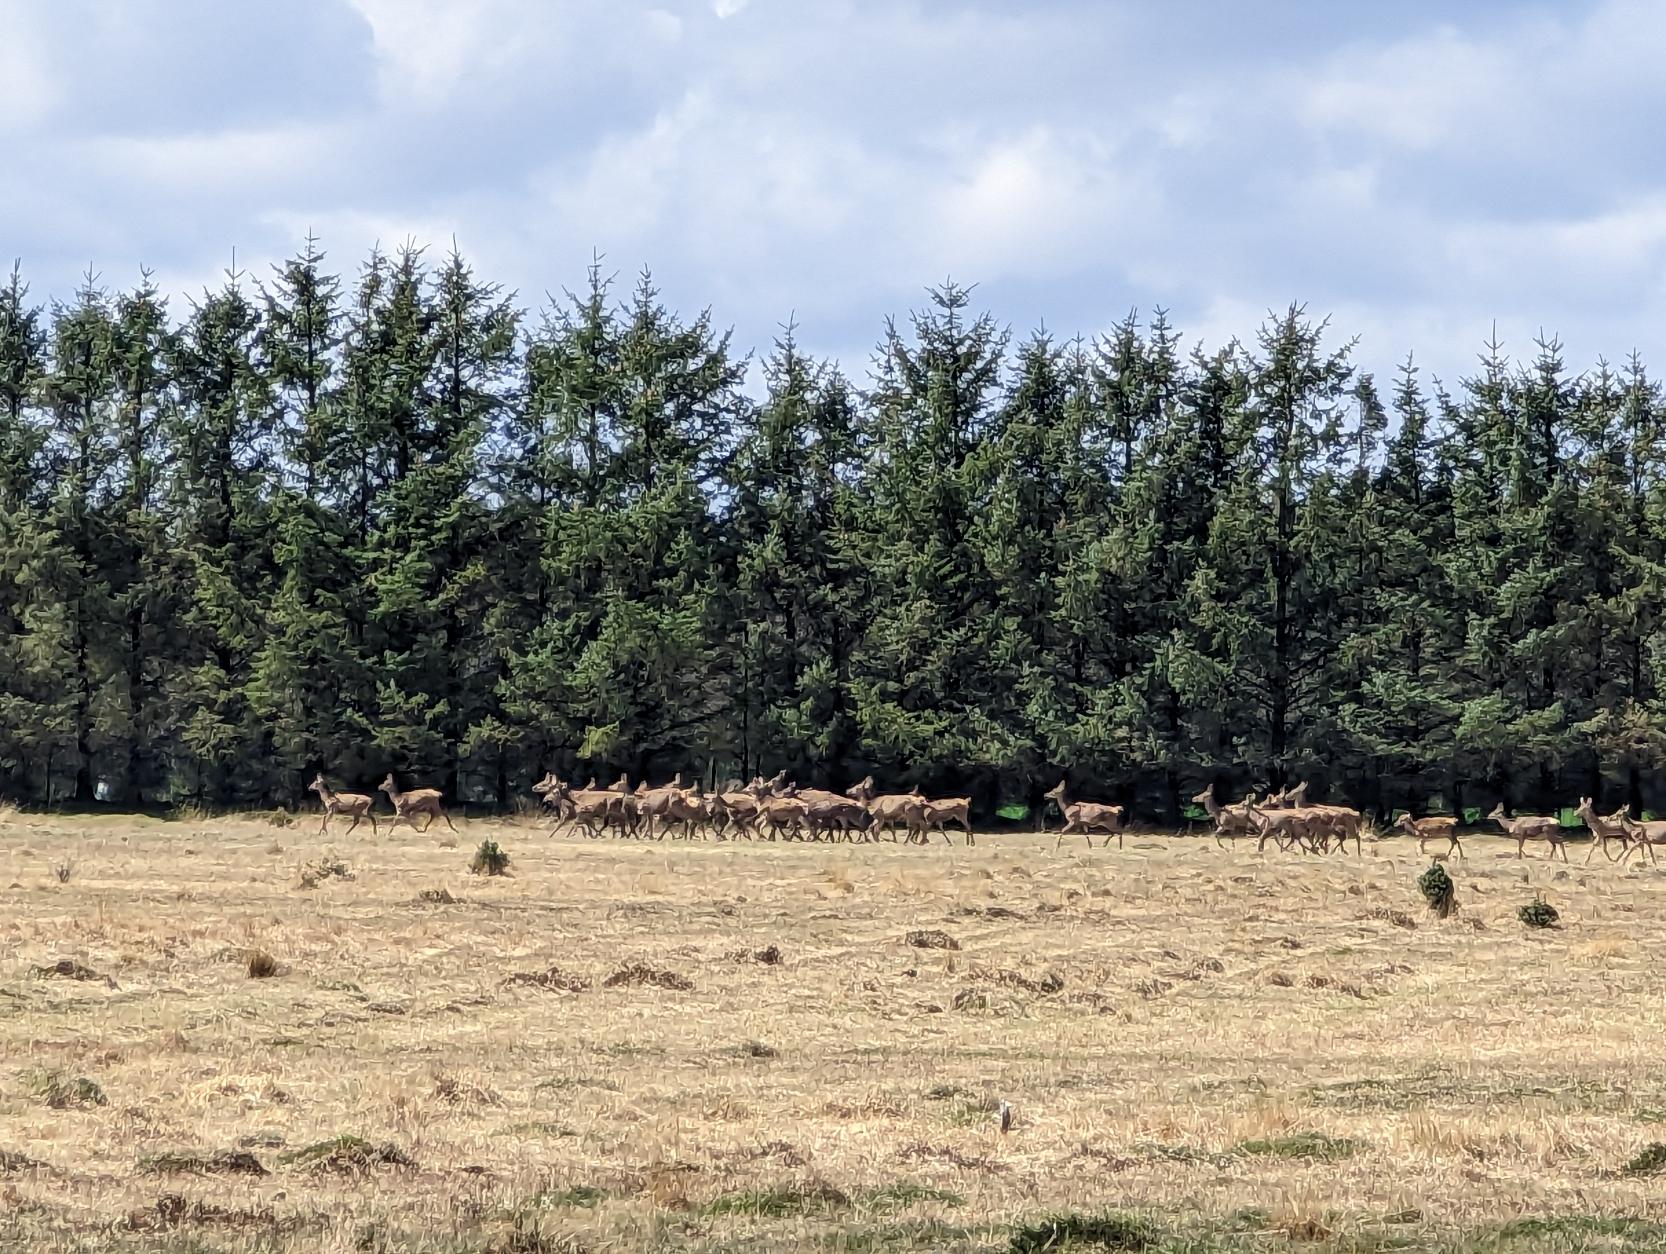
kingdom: Animalia
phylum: Chordata
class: Mammalia
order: Artiodactyla
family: Cervidae
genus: Cervus
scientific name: Cervus elaphus
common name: Krondyr
